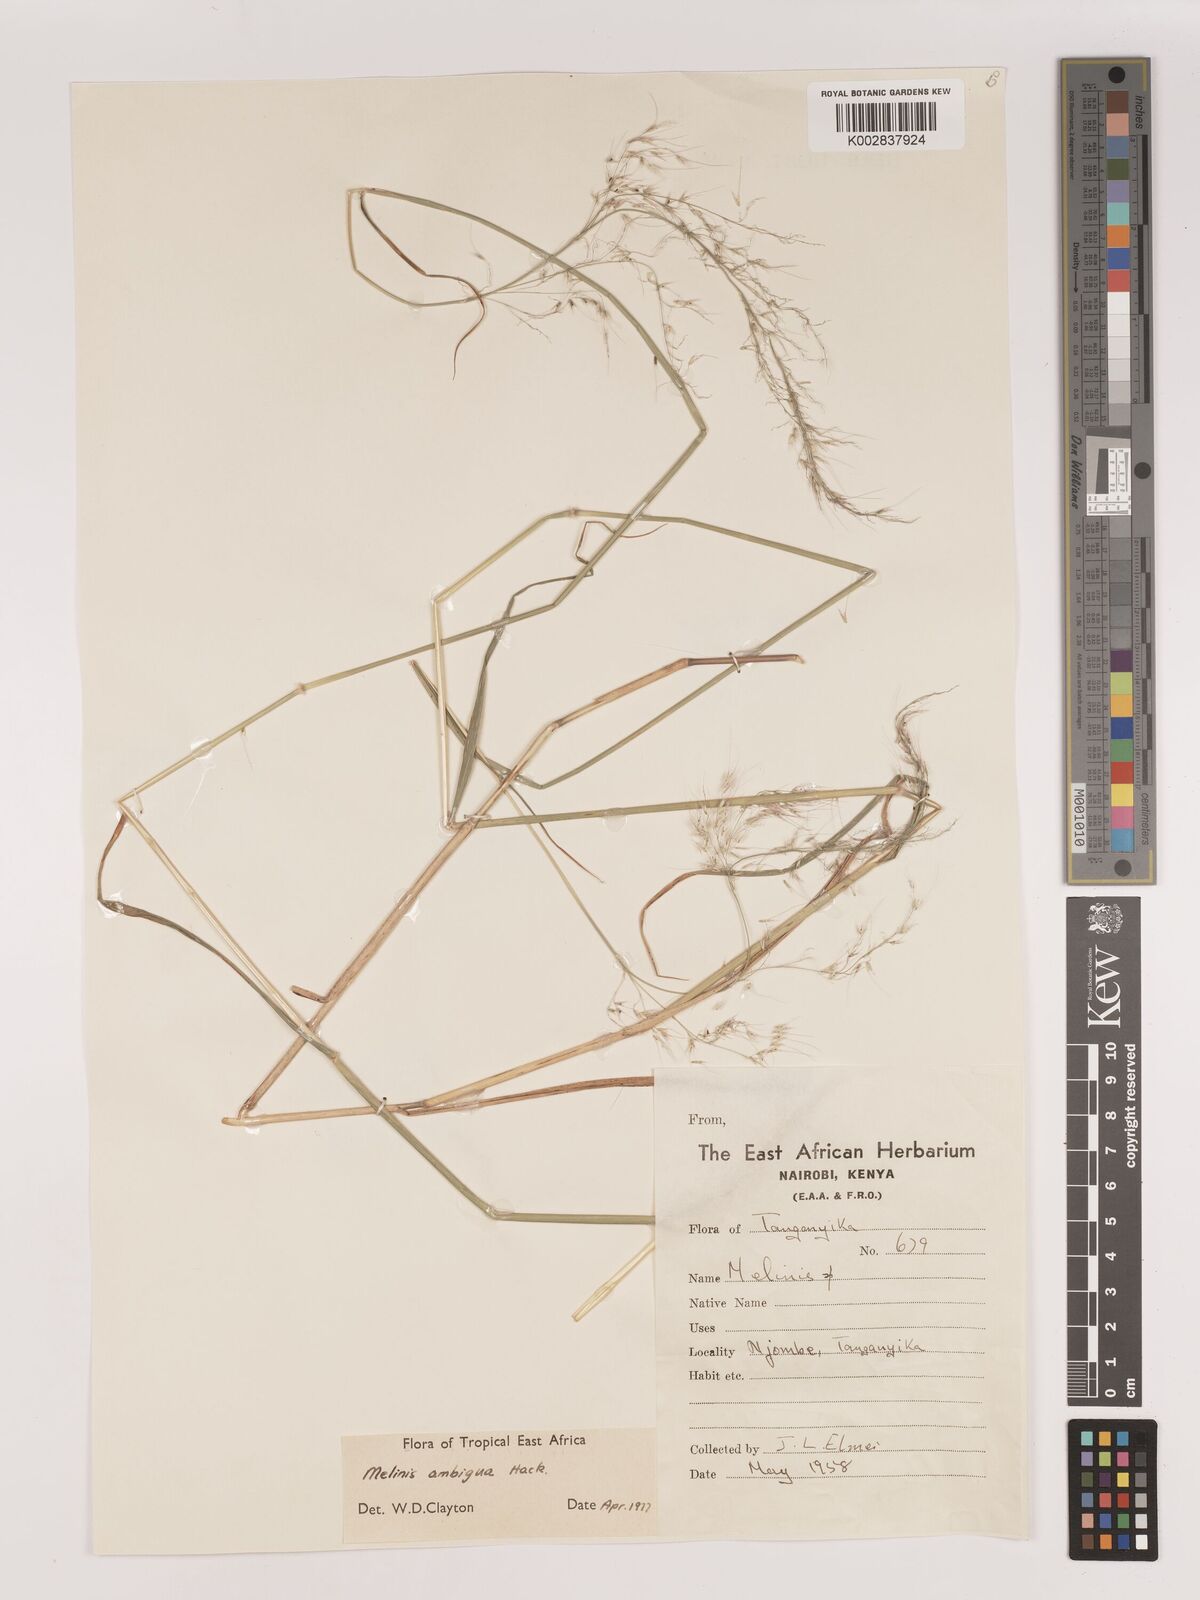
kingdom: Plantae
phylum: Tracheophyta
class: Liliopsida
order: Poales
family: Poaceae
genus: Melinis
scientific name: Melinis ambigua
